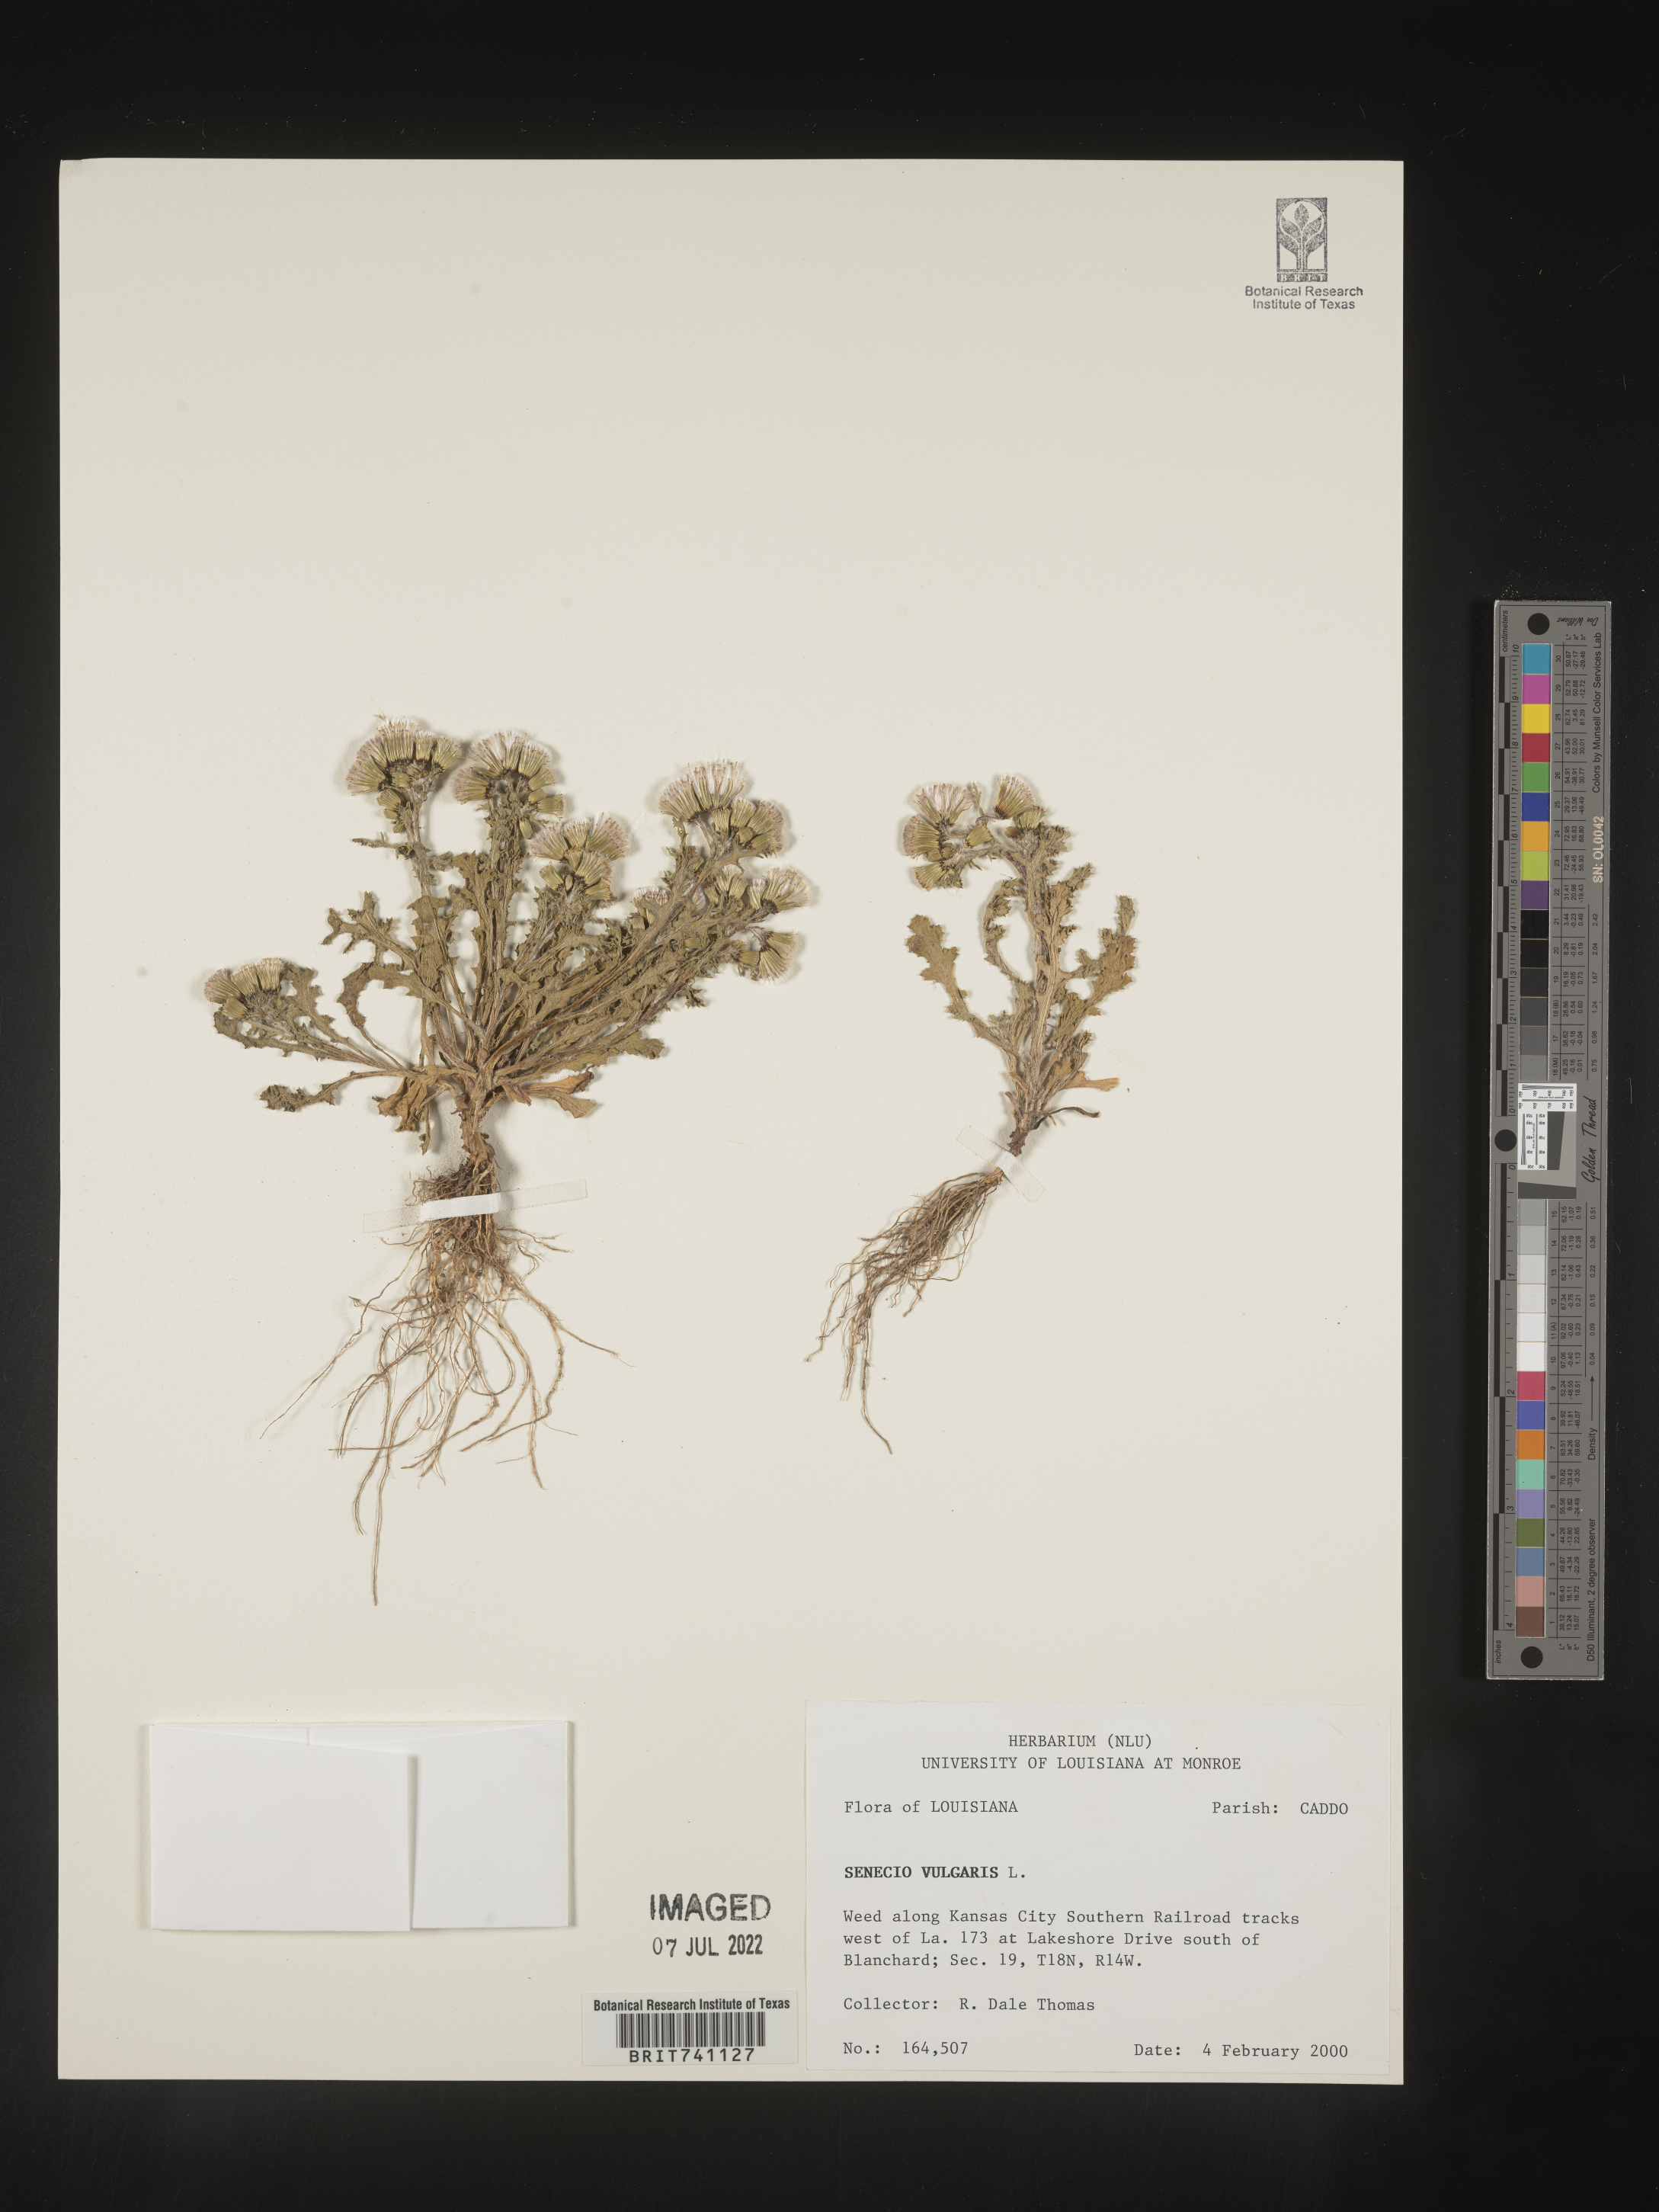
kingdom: Plantae
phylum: Tracheophyta
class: Magnoliopsida
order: Asterales
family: Asteraceae
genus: Senecio
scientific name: Senecio vulgaris
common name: Old-man-in-the-spring
